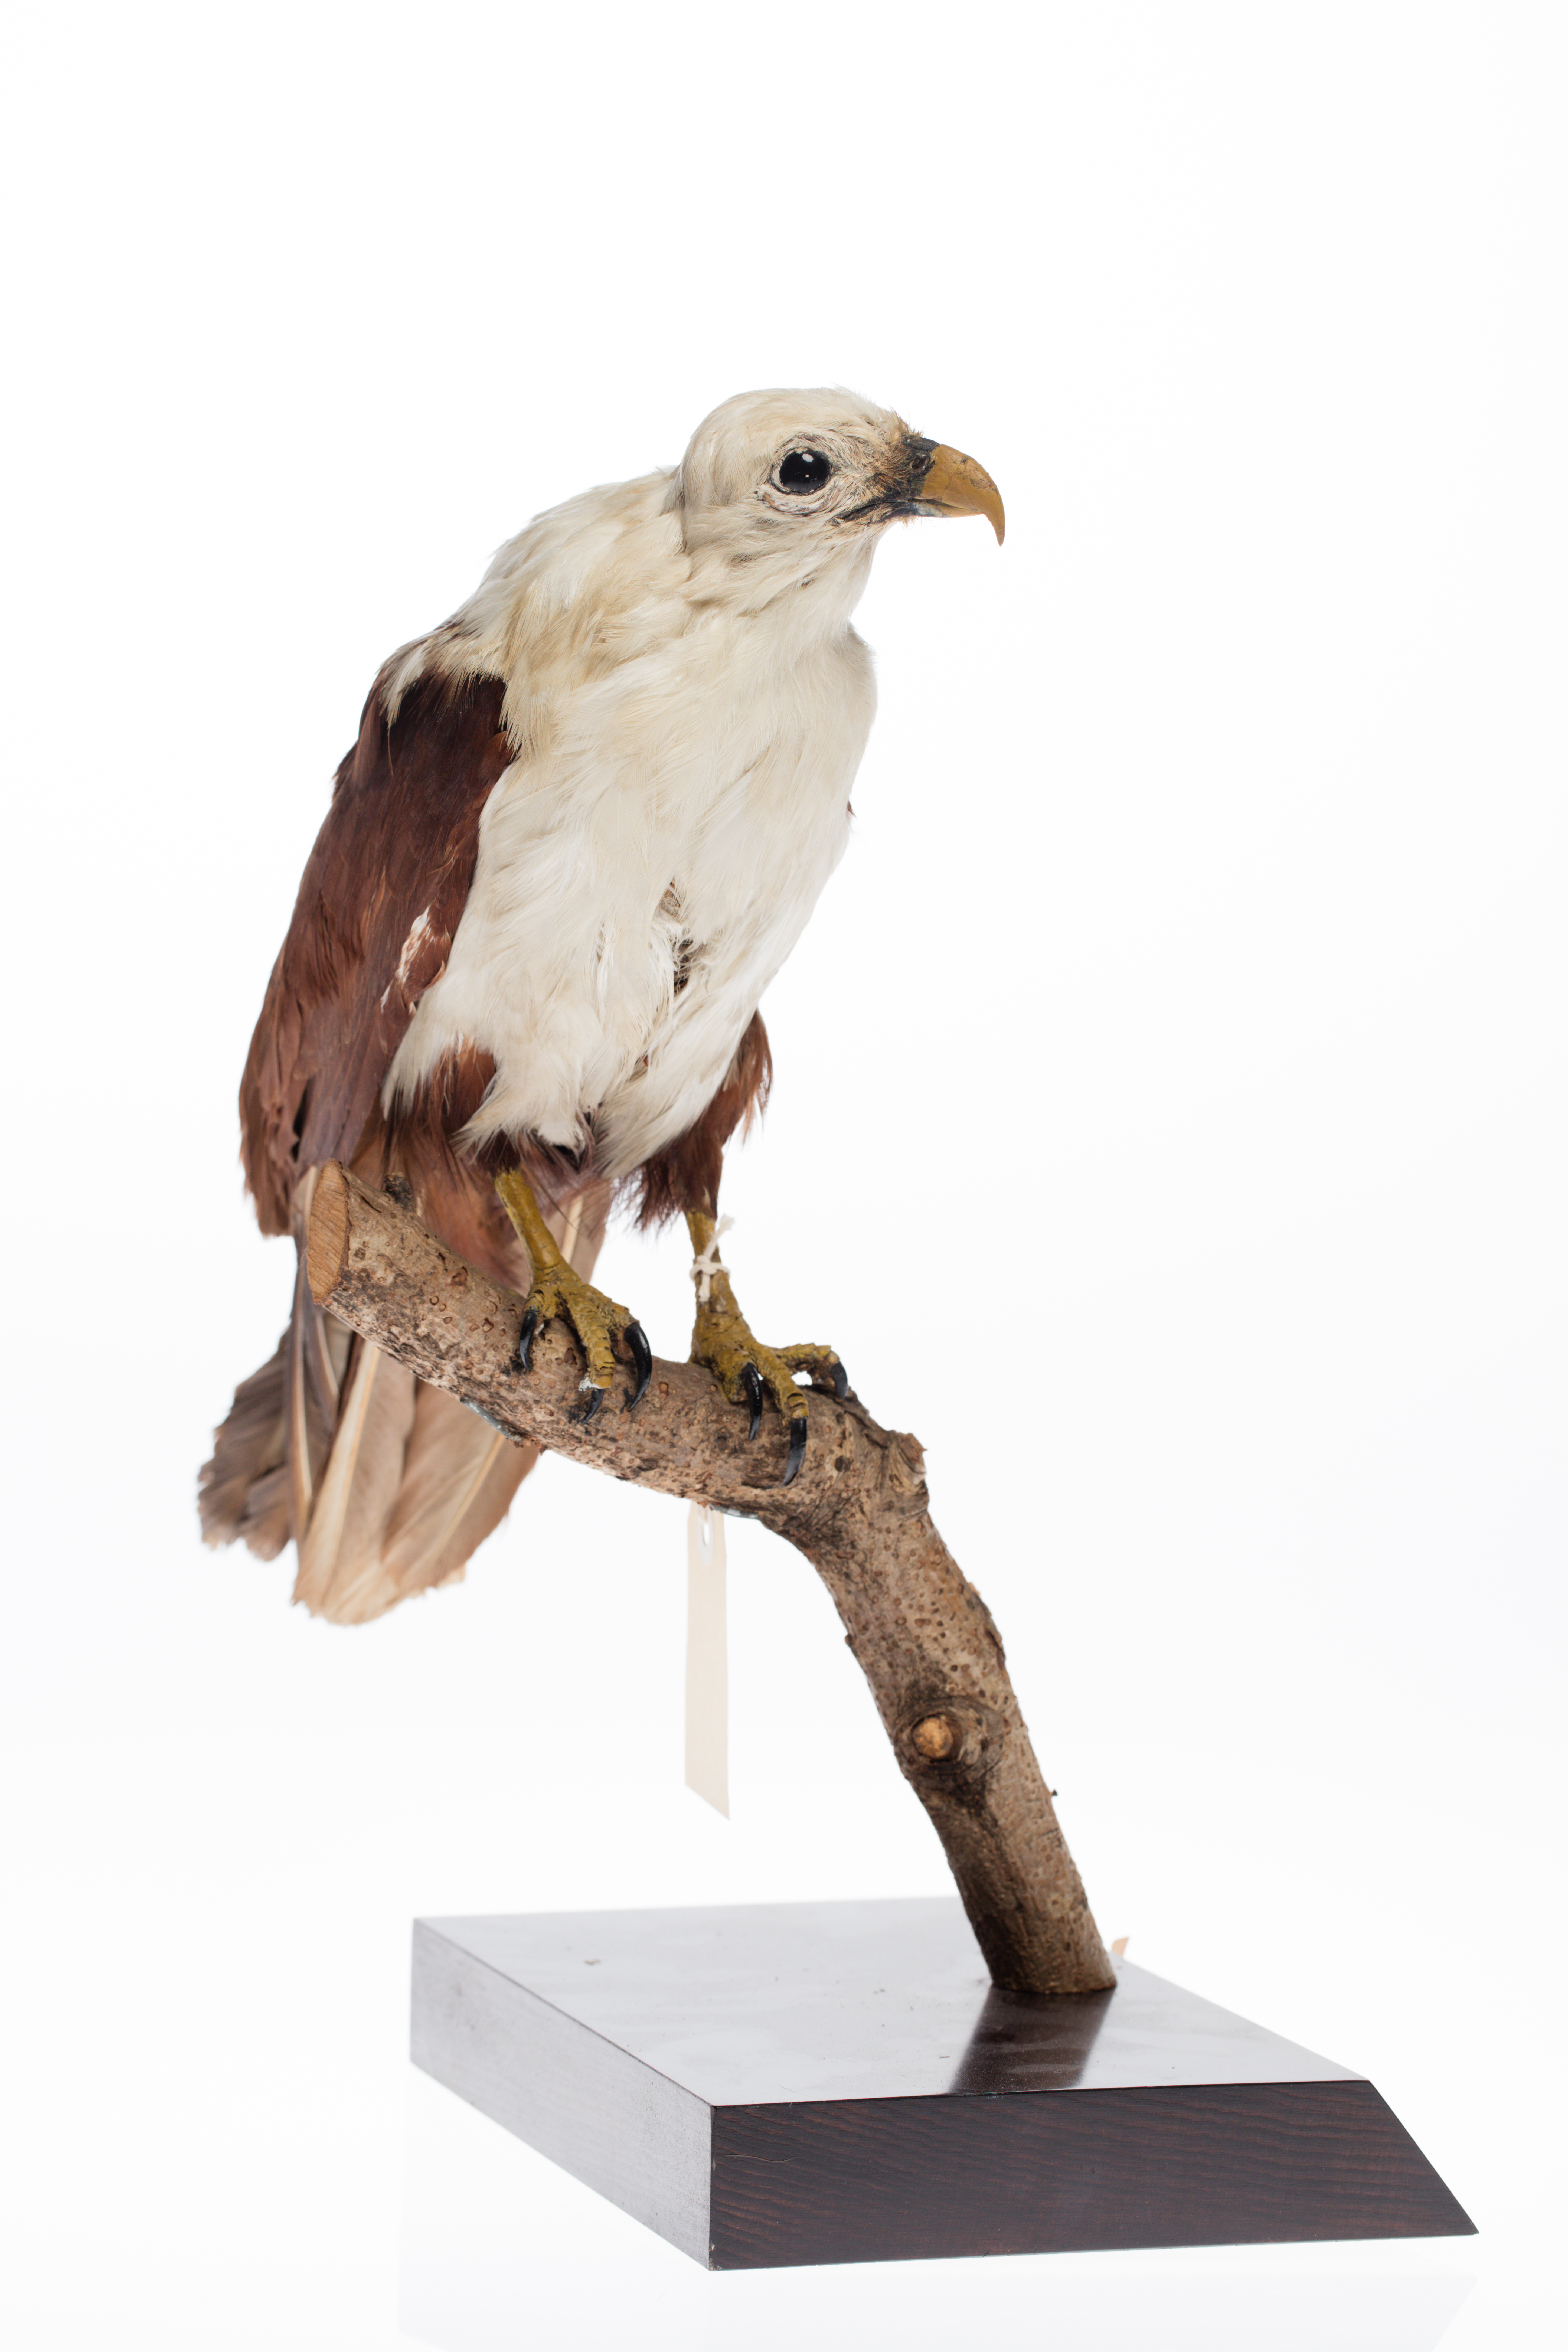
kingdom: Animalia
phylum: Chordata
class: Aves
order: Accipitriformes
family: Accipitridae
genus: Haliastur
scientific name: Haliastur indus
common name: Brahminy kite
